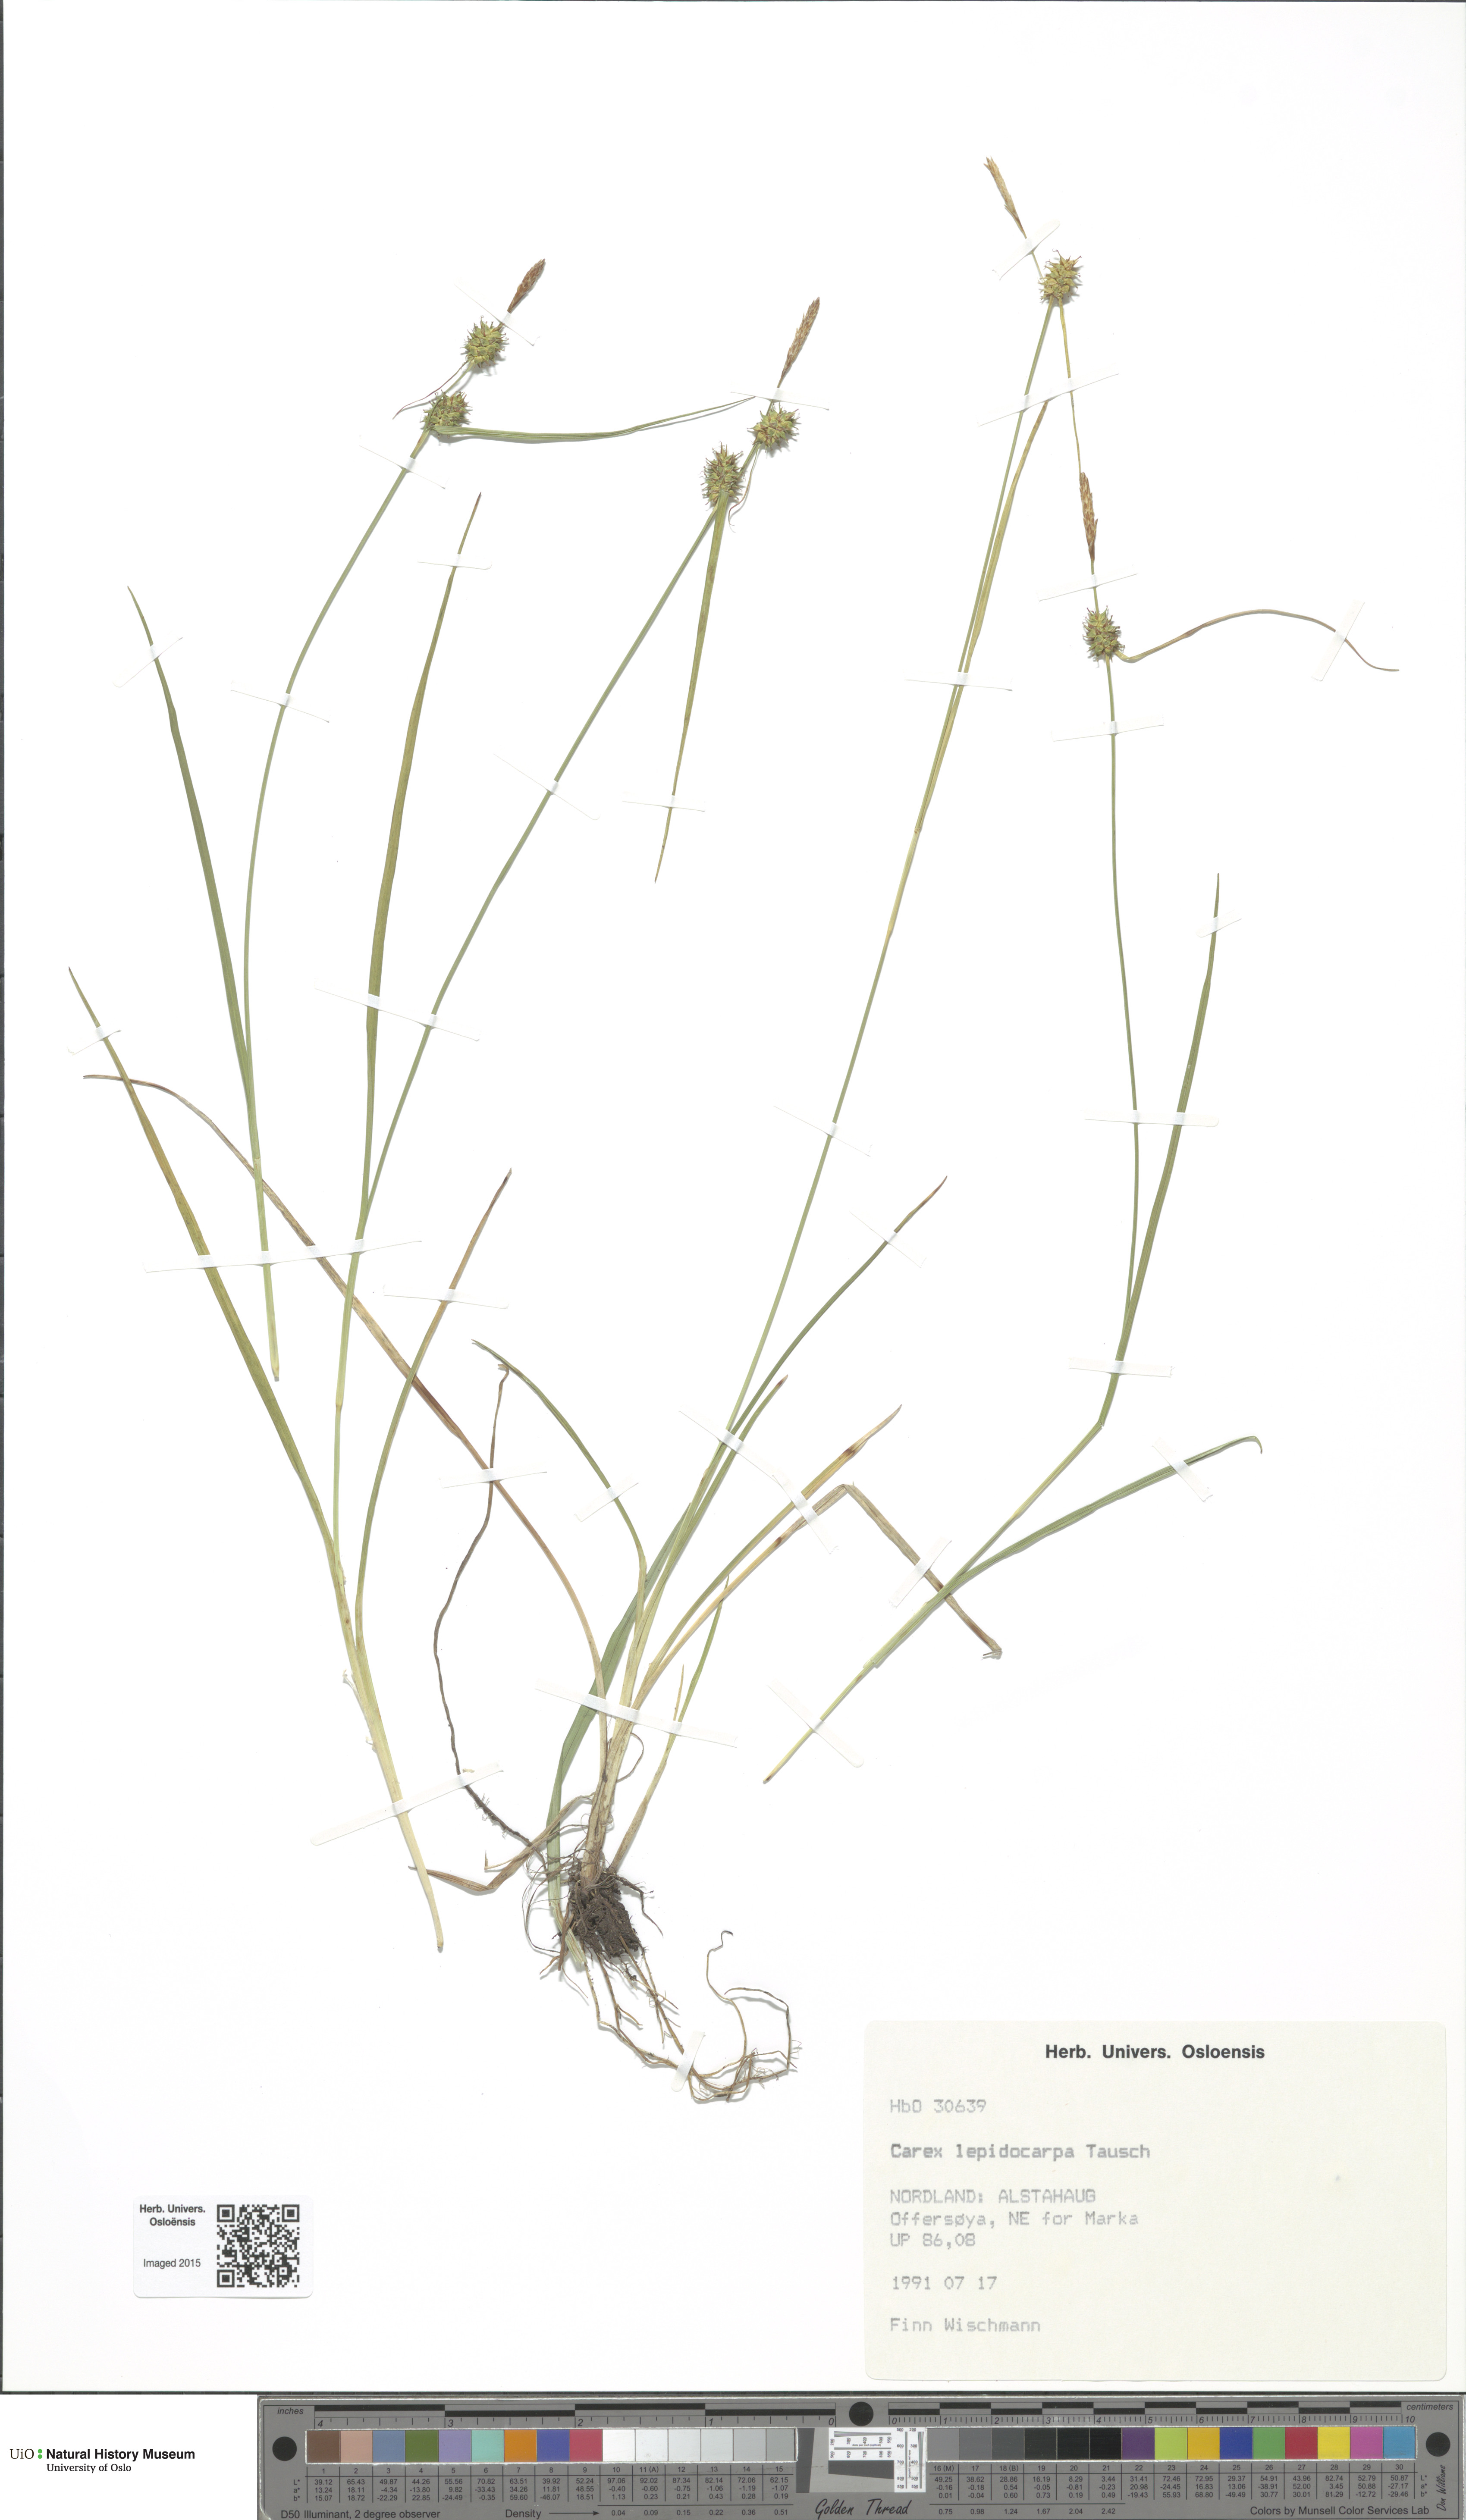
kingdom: Plantae
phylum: Tracheophyta
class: Liliopsida
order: Poales
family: Cyperaceae
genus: Carex
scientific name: Carex lepidocarpa
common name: Long-stalked yellow-sedge
